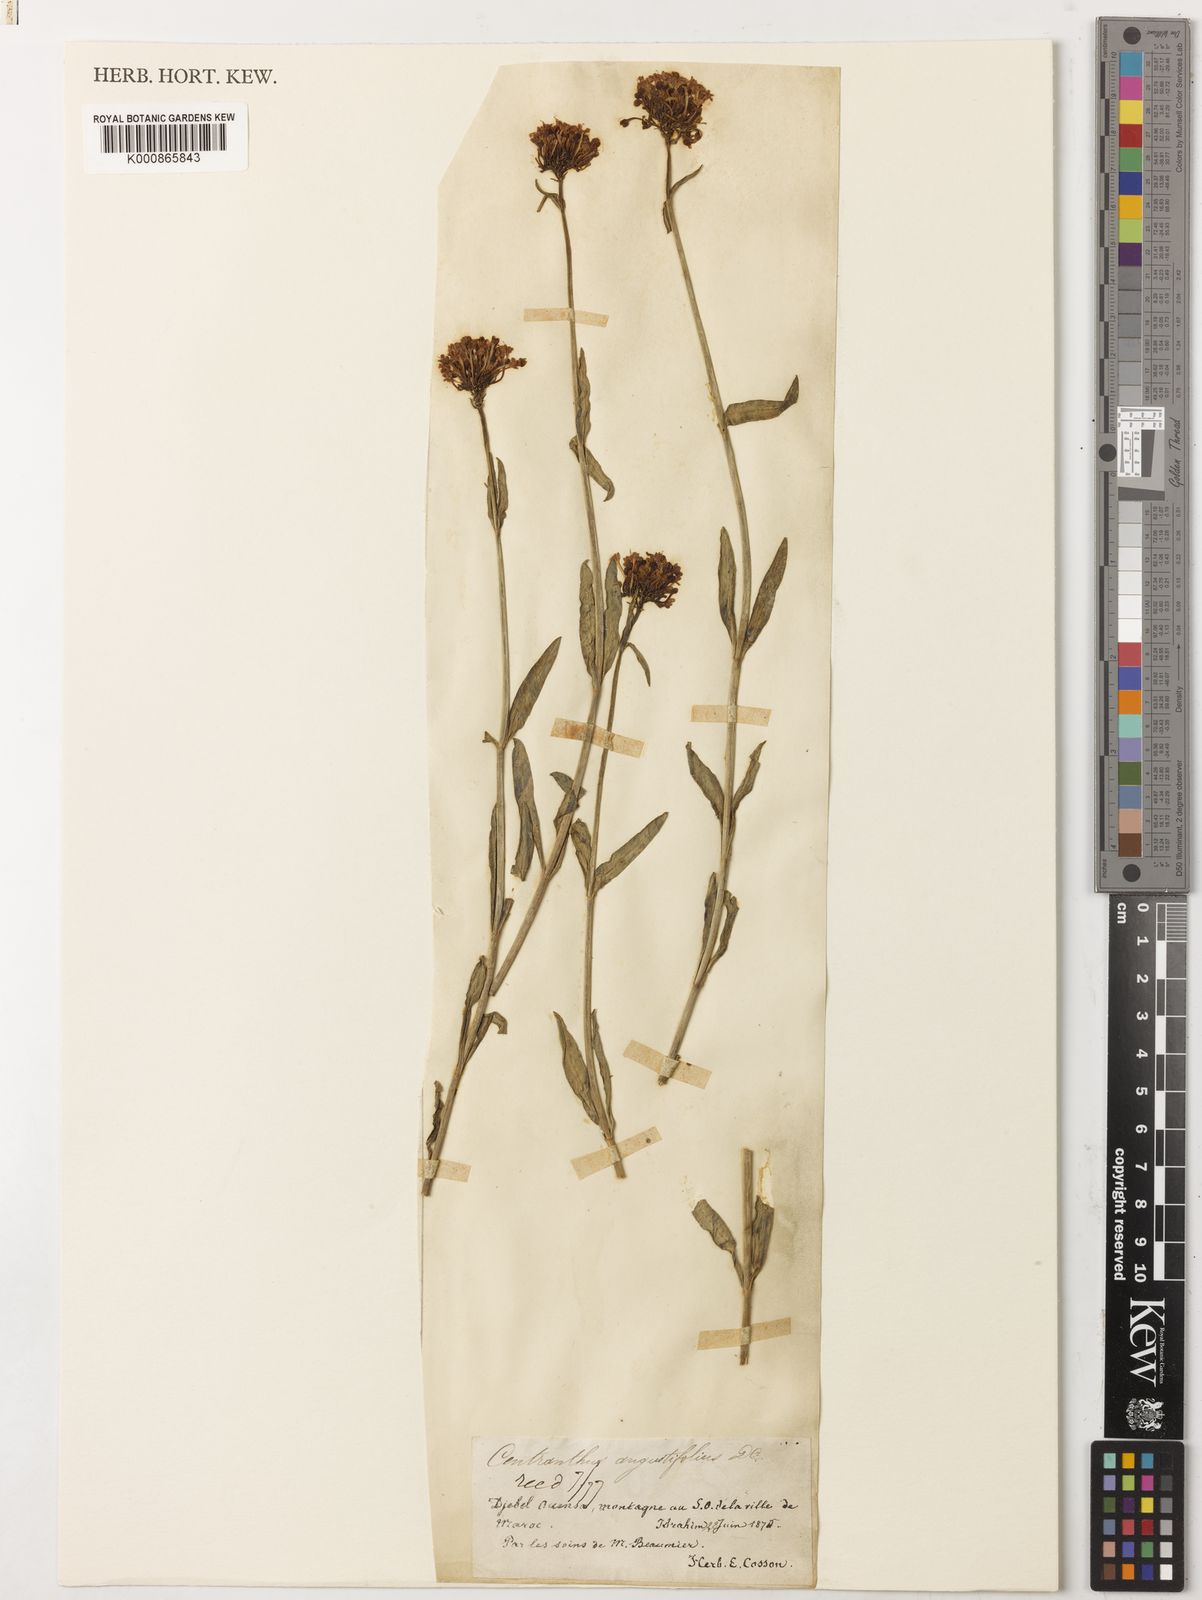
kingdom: Plantae
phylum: Tracheophyta
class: Magnoliopsida
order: Dipsacales
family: Caprifoliaceae
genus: Centranthus
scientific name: Centranthus angustifolius
